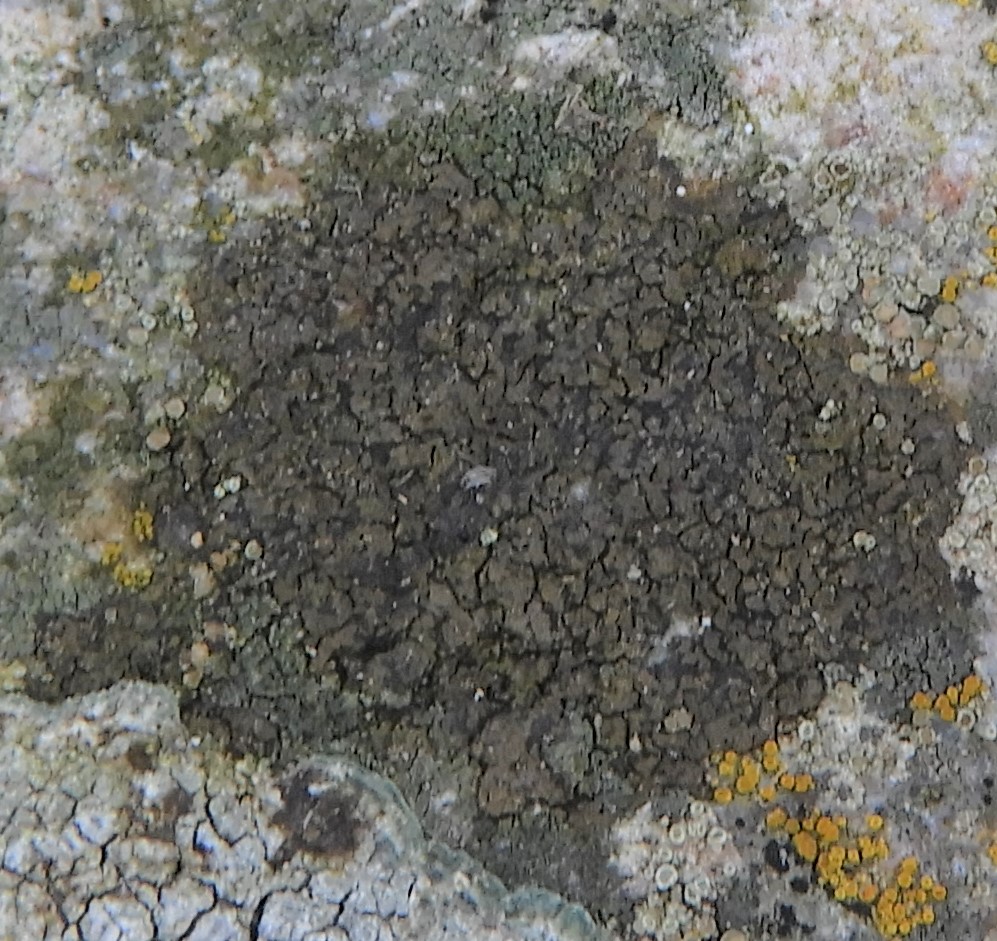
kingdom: Fungi
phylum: Ascomycota
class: Lecanoromycetes
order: Acarosporales
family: Acarosporaceae
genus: Acarospora
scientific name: Acarospora fuscata
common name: brun småsporelav
